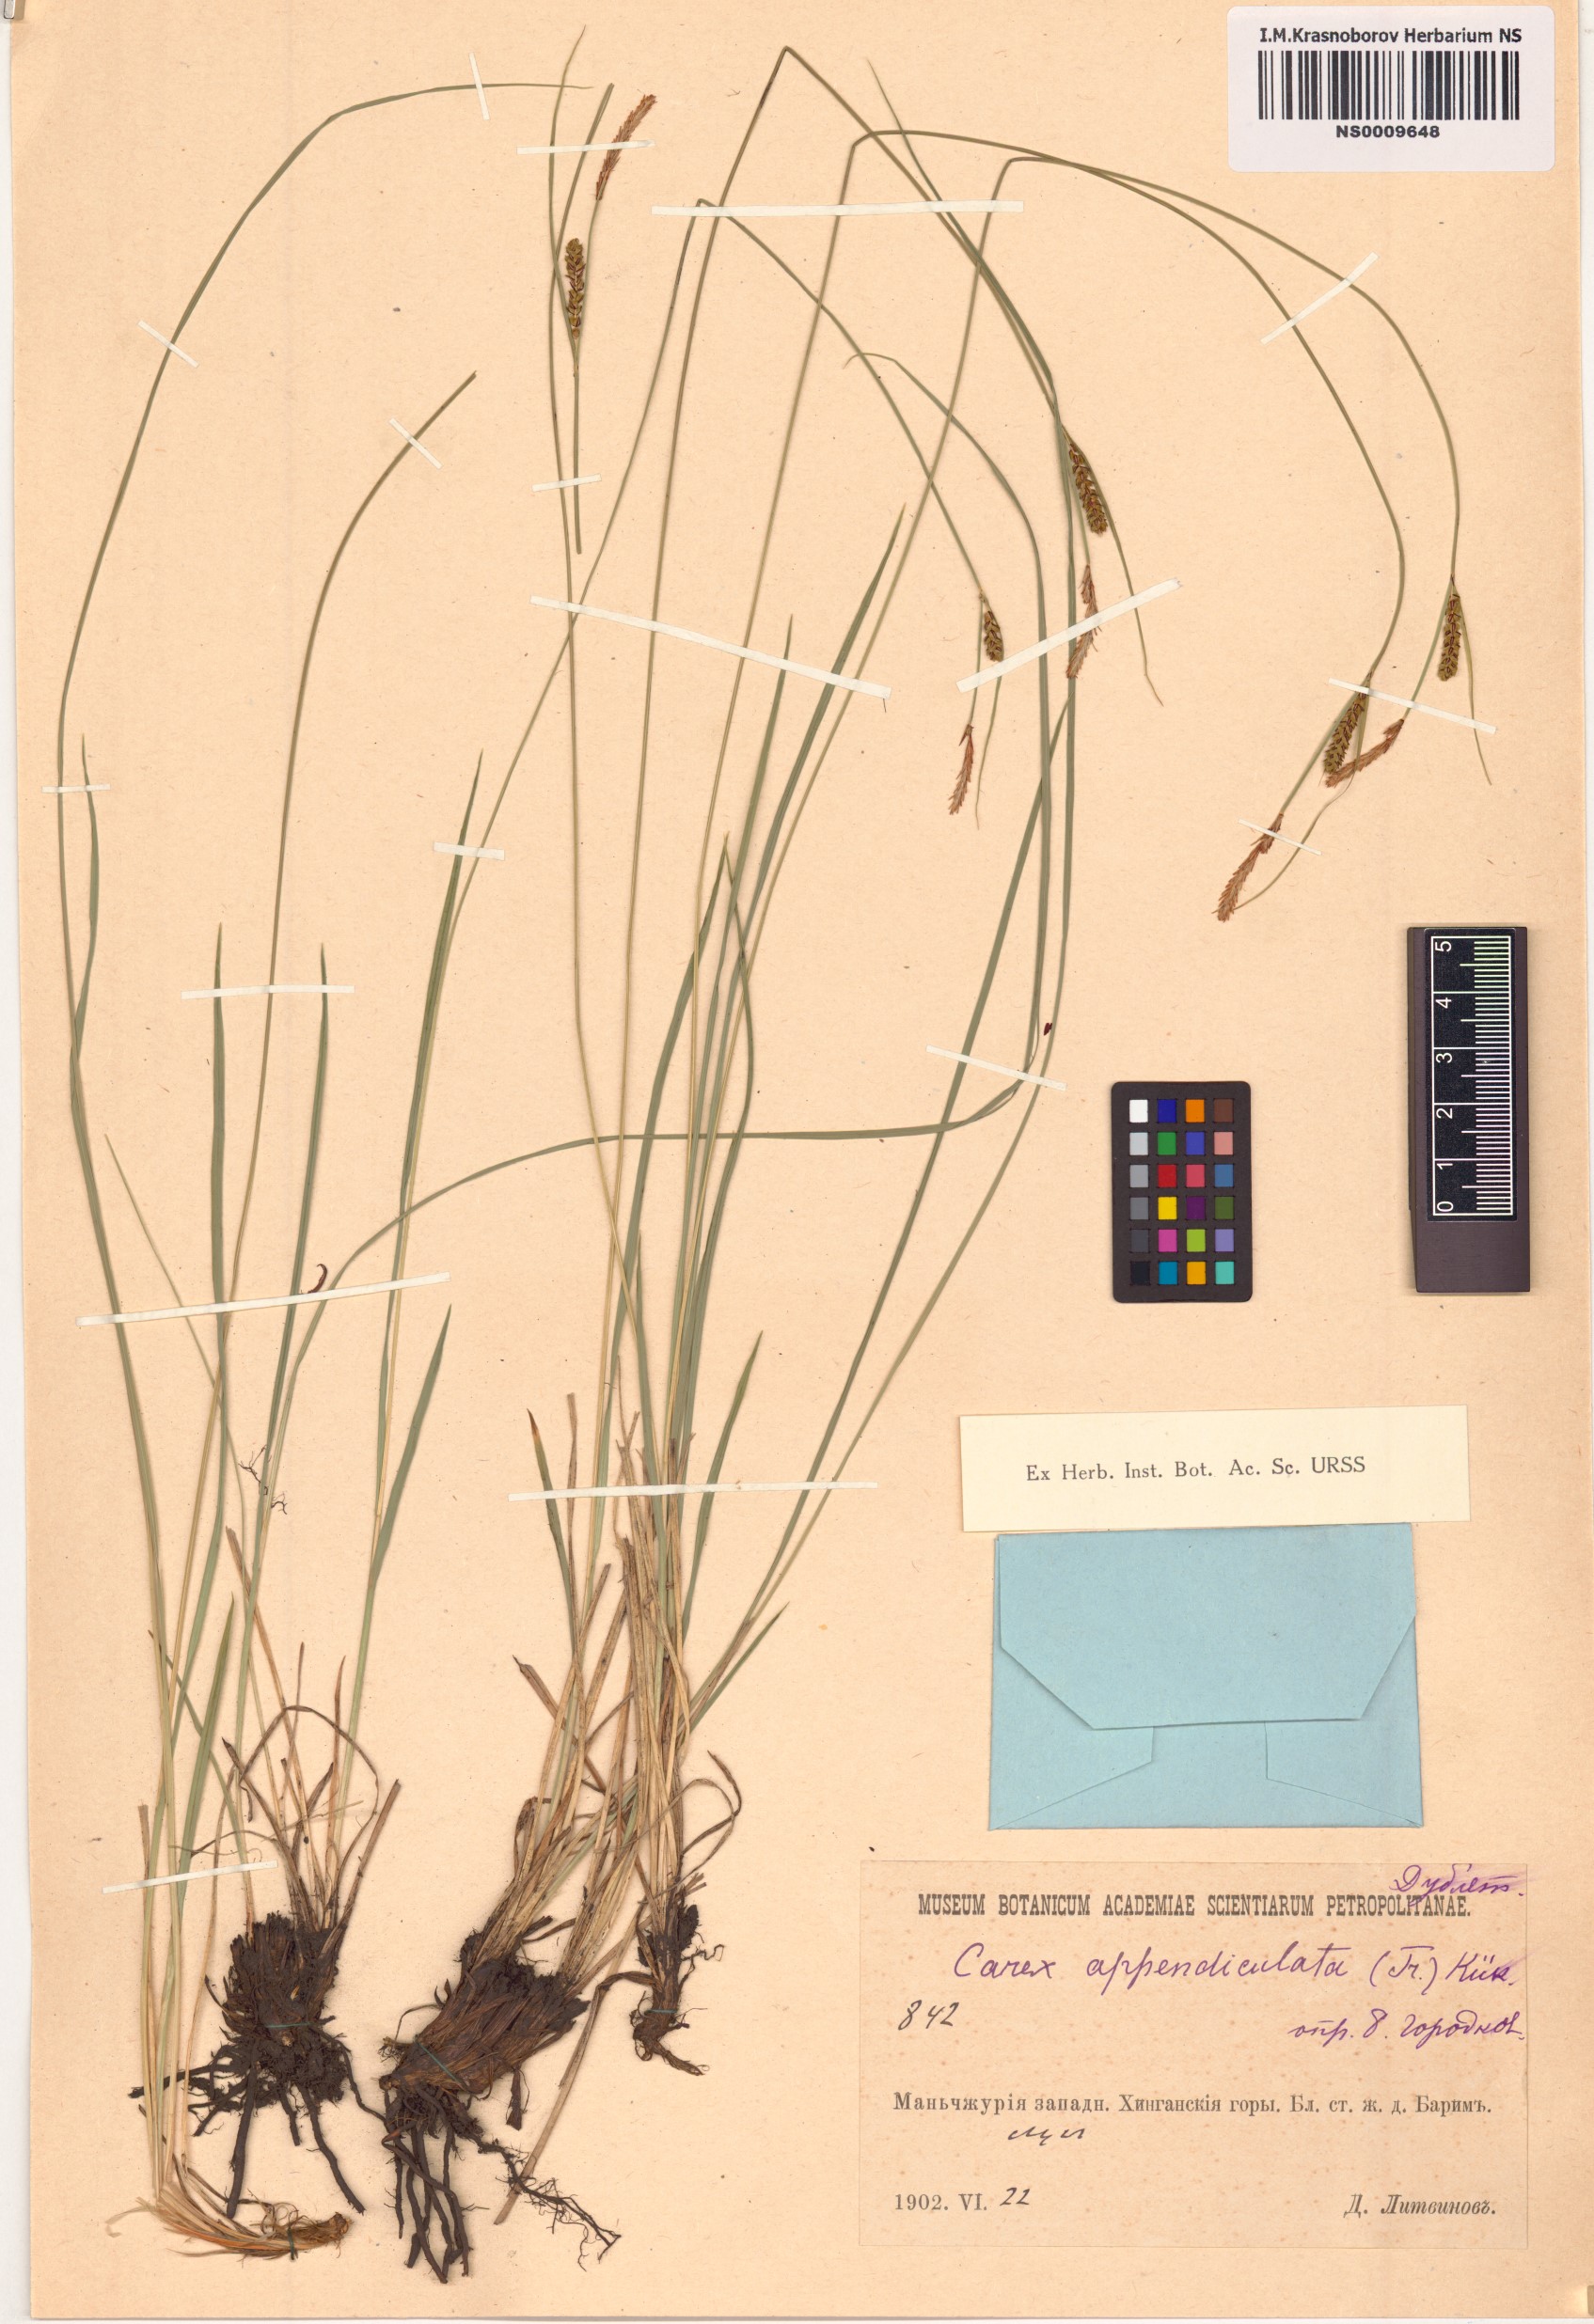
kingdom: Plantae
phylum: Tracheophyta
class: Liliopsida
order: Poales
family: Cyperaceae
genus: Carex
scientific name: Carex appendiculata
